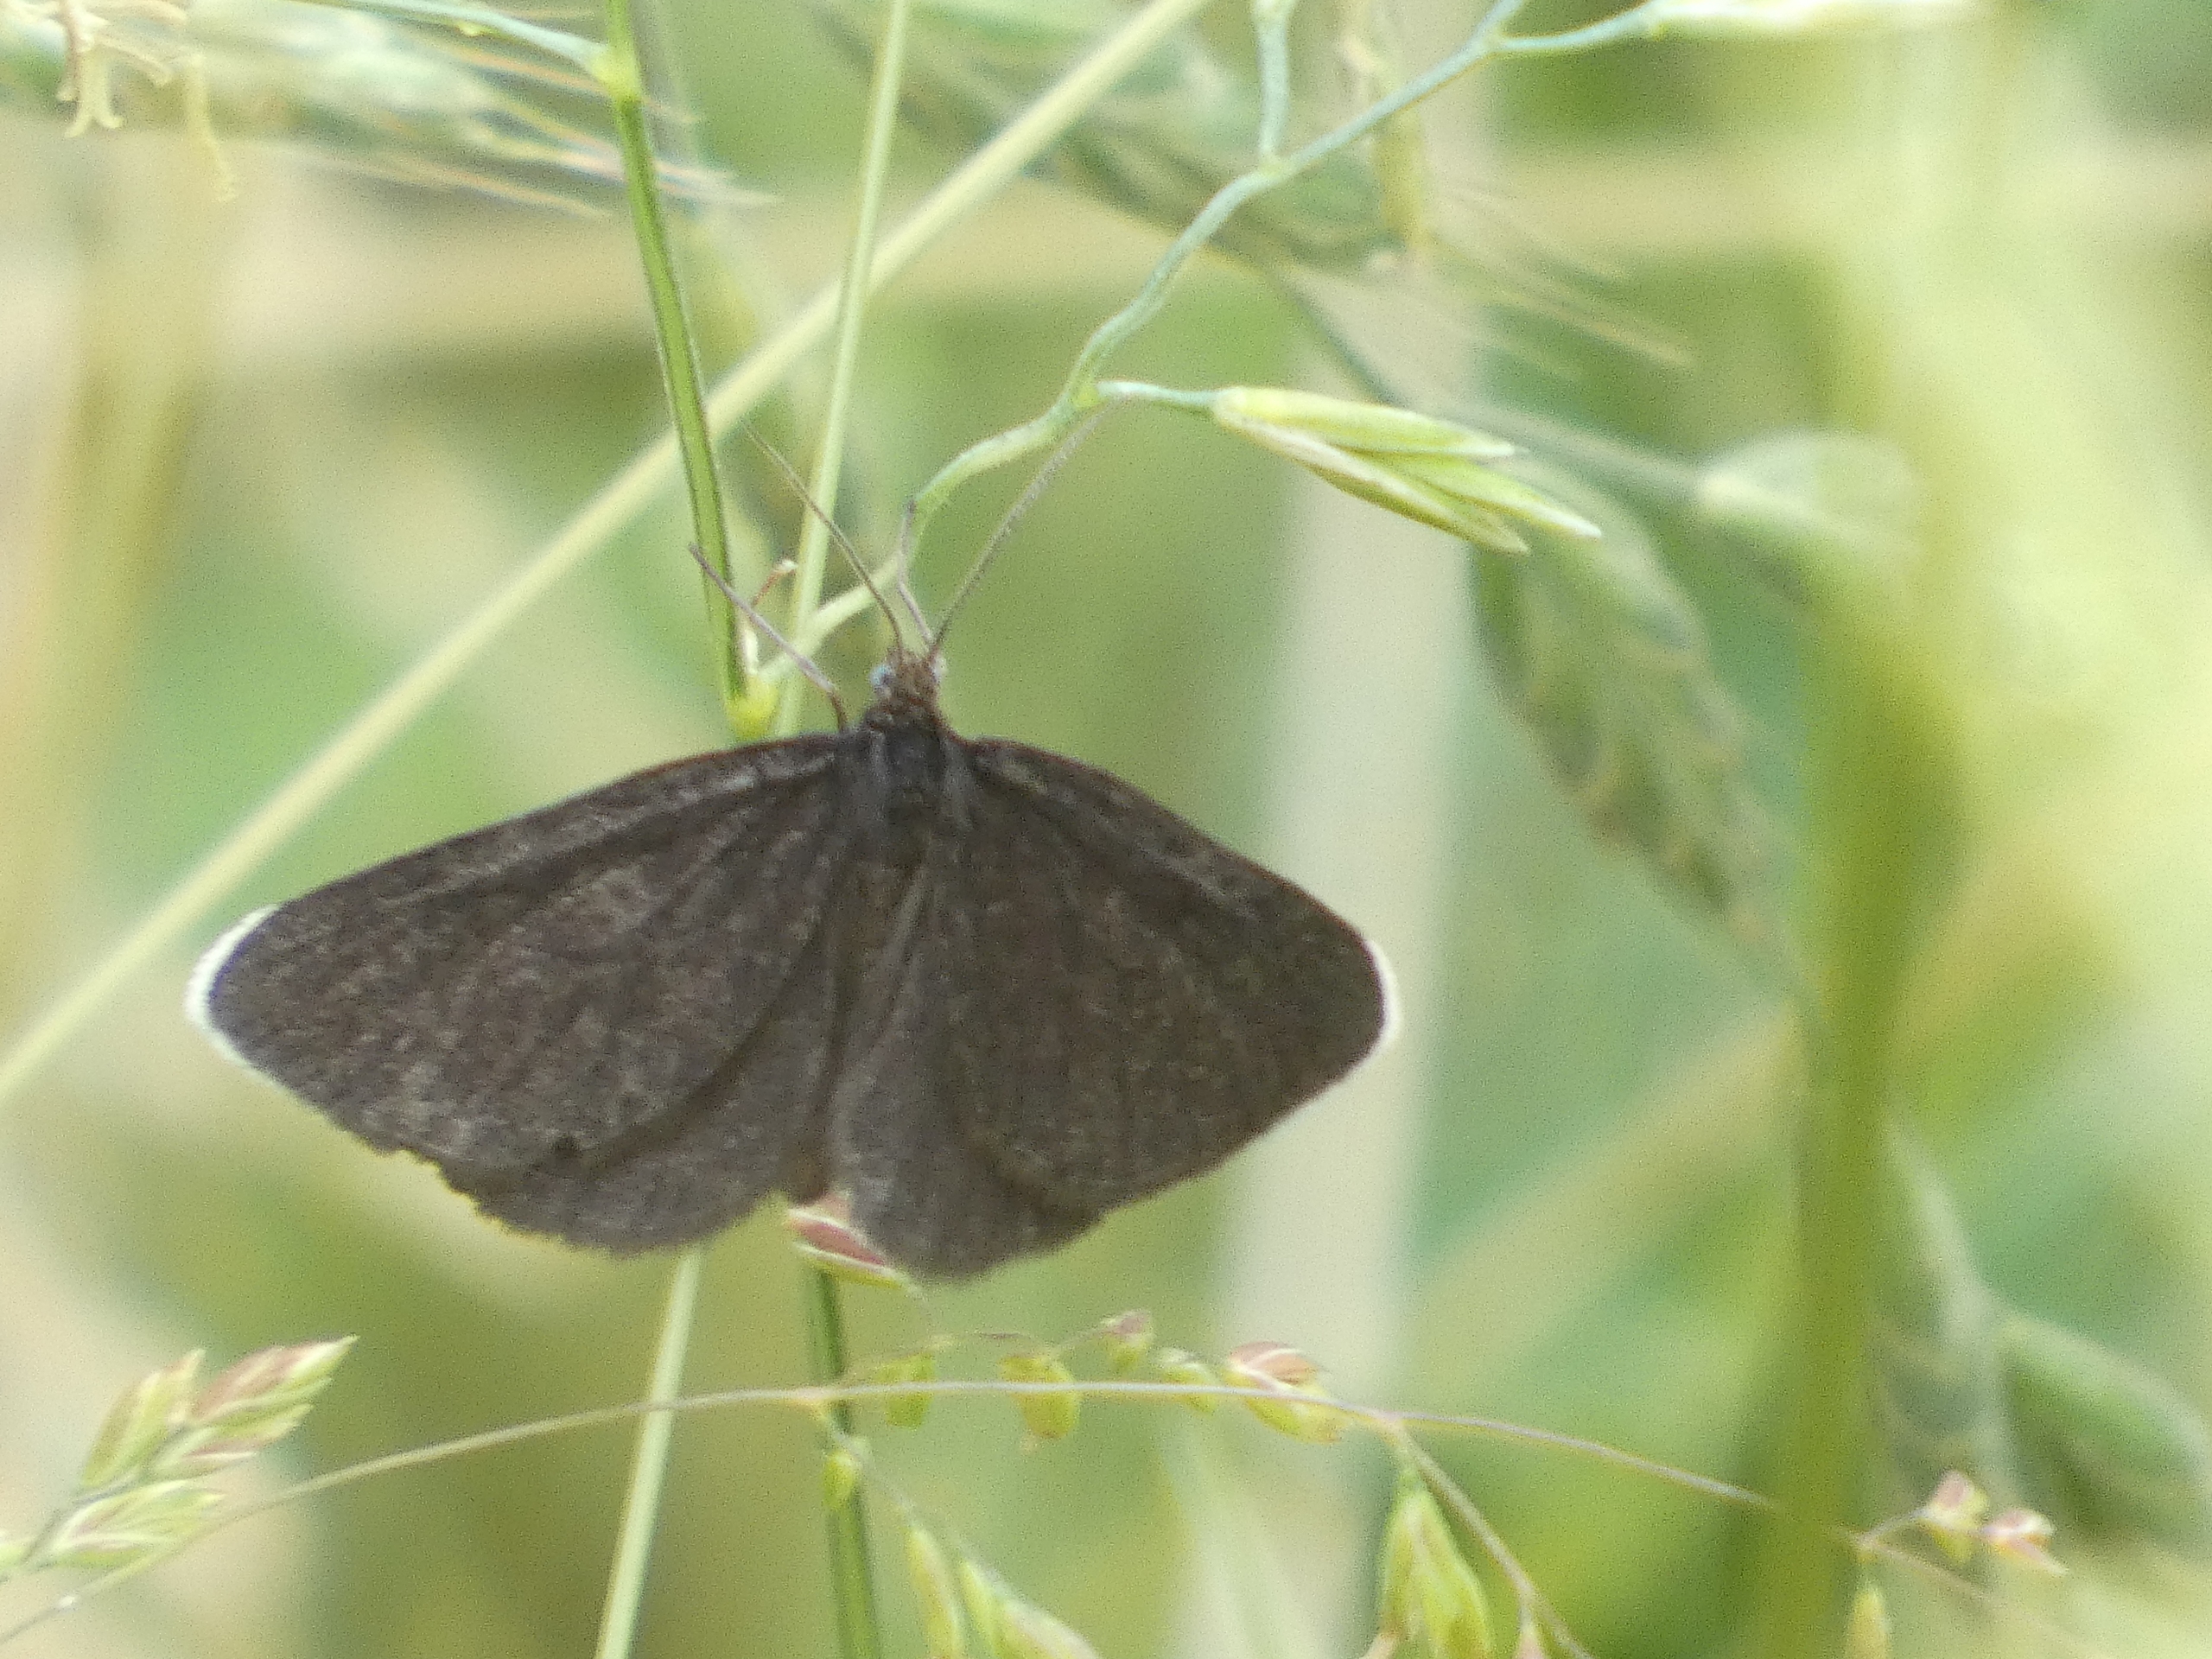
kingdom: Animalia
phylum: Arthropoda
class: Insecta
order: Lepidoptera
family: Geometridae
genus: Odezia
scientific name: Odezia atrata
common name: Sort måler
